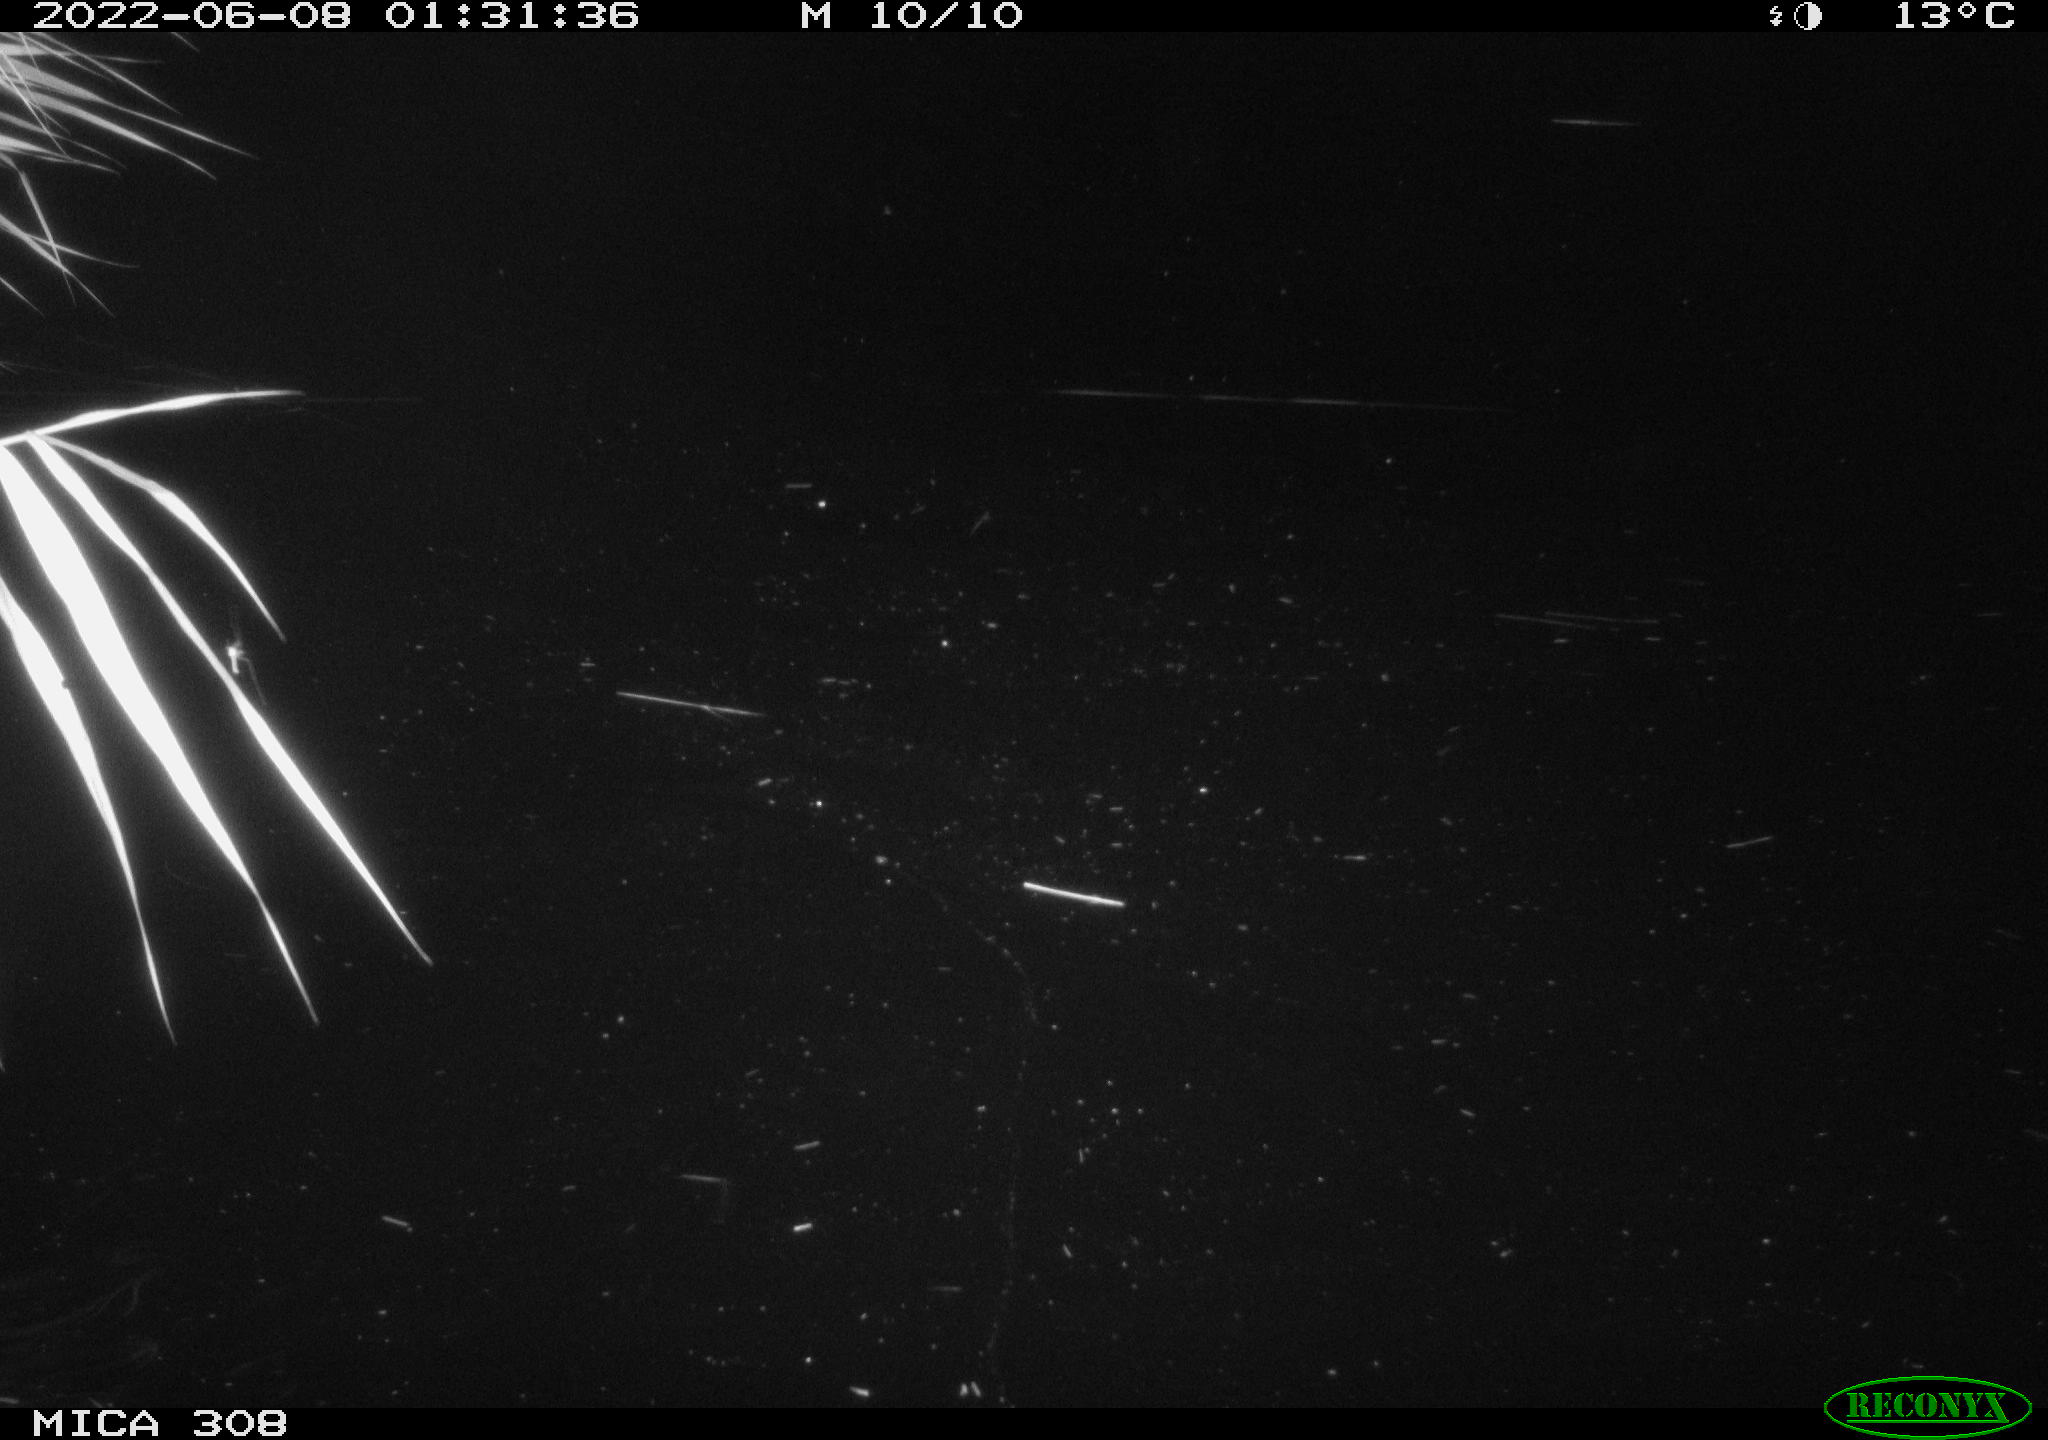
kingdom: Animalia
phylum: Chordata
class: Aves
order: Anseriformes
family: Anatidae
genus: Anas
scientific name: Anas platyrhynchos
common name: Mallard
